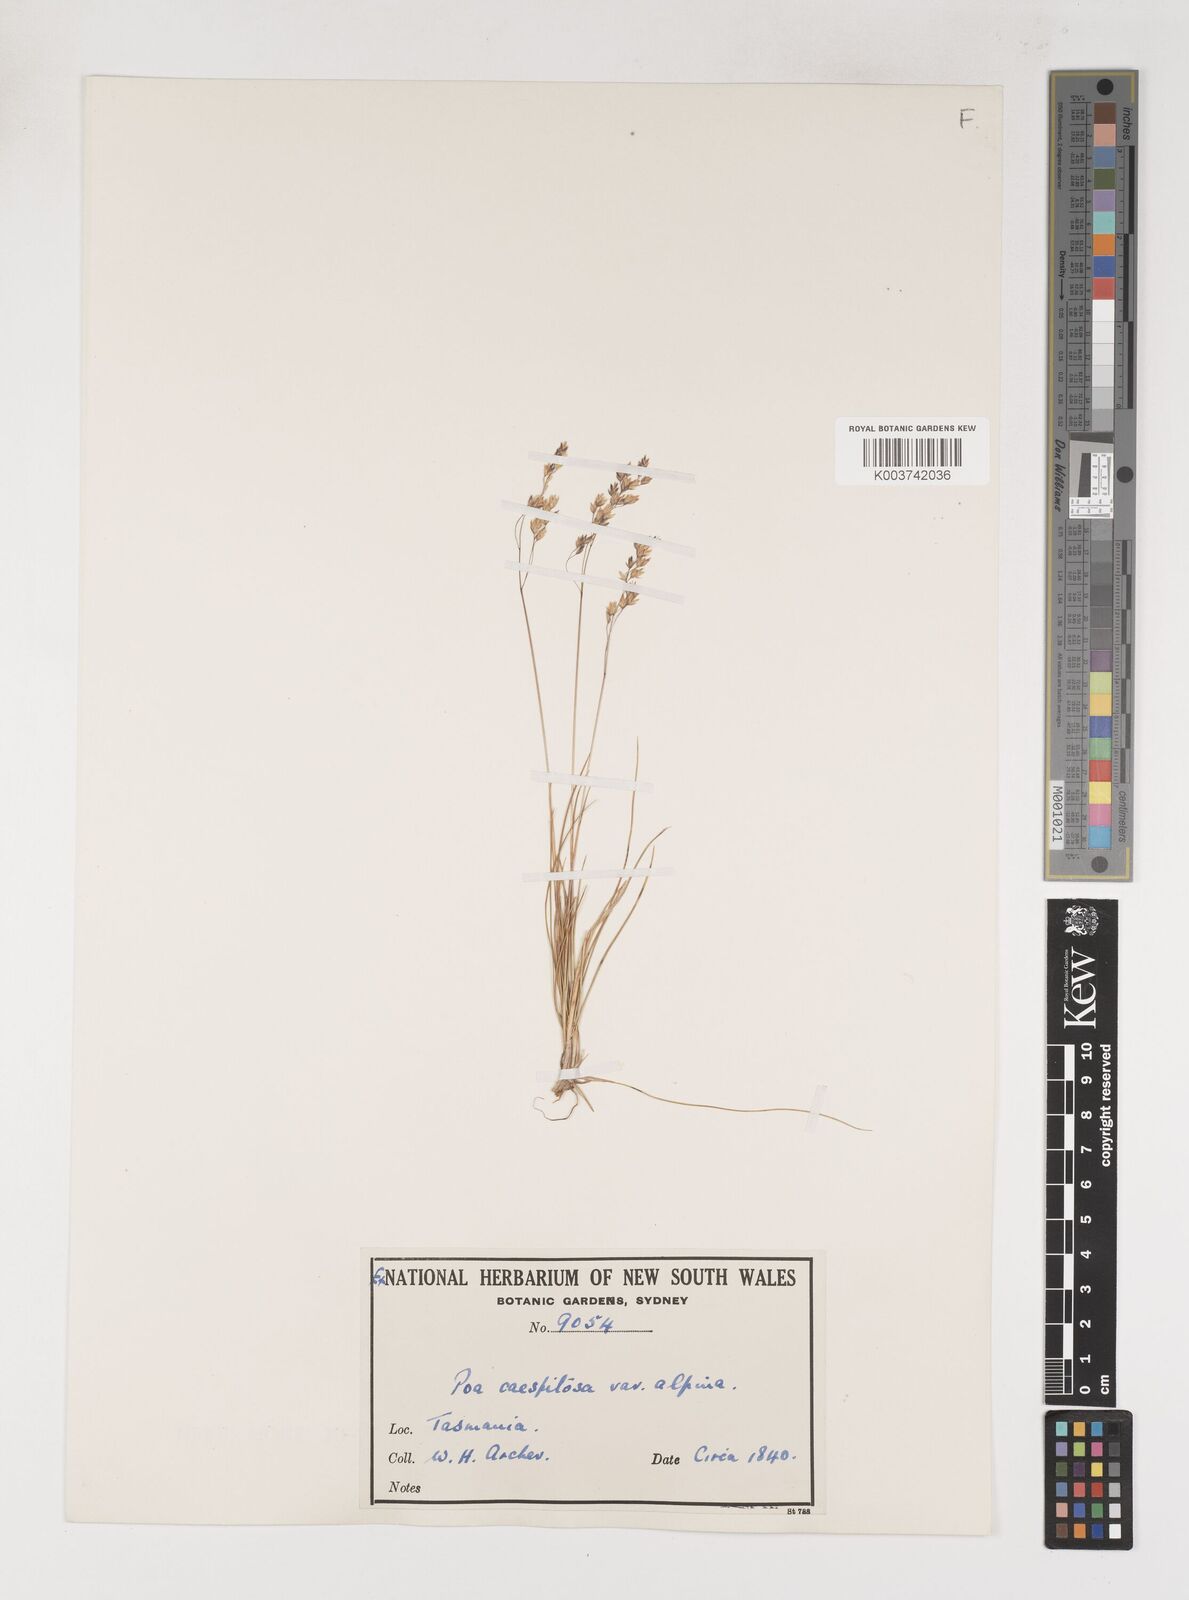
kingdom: Plantae
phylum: Tracheophyta
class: Liliopsida
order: Poales
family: Poaceae
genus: Poa
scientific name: Poa gunnii
